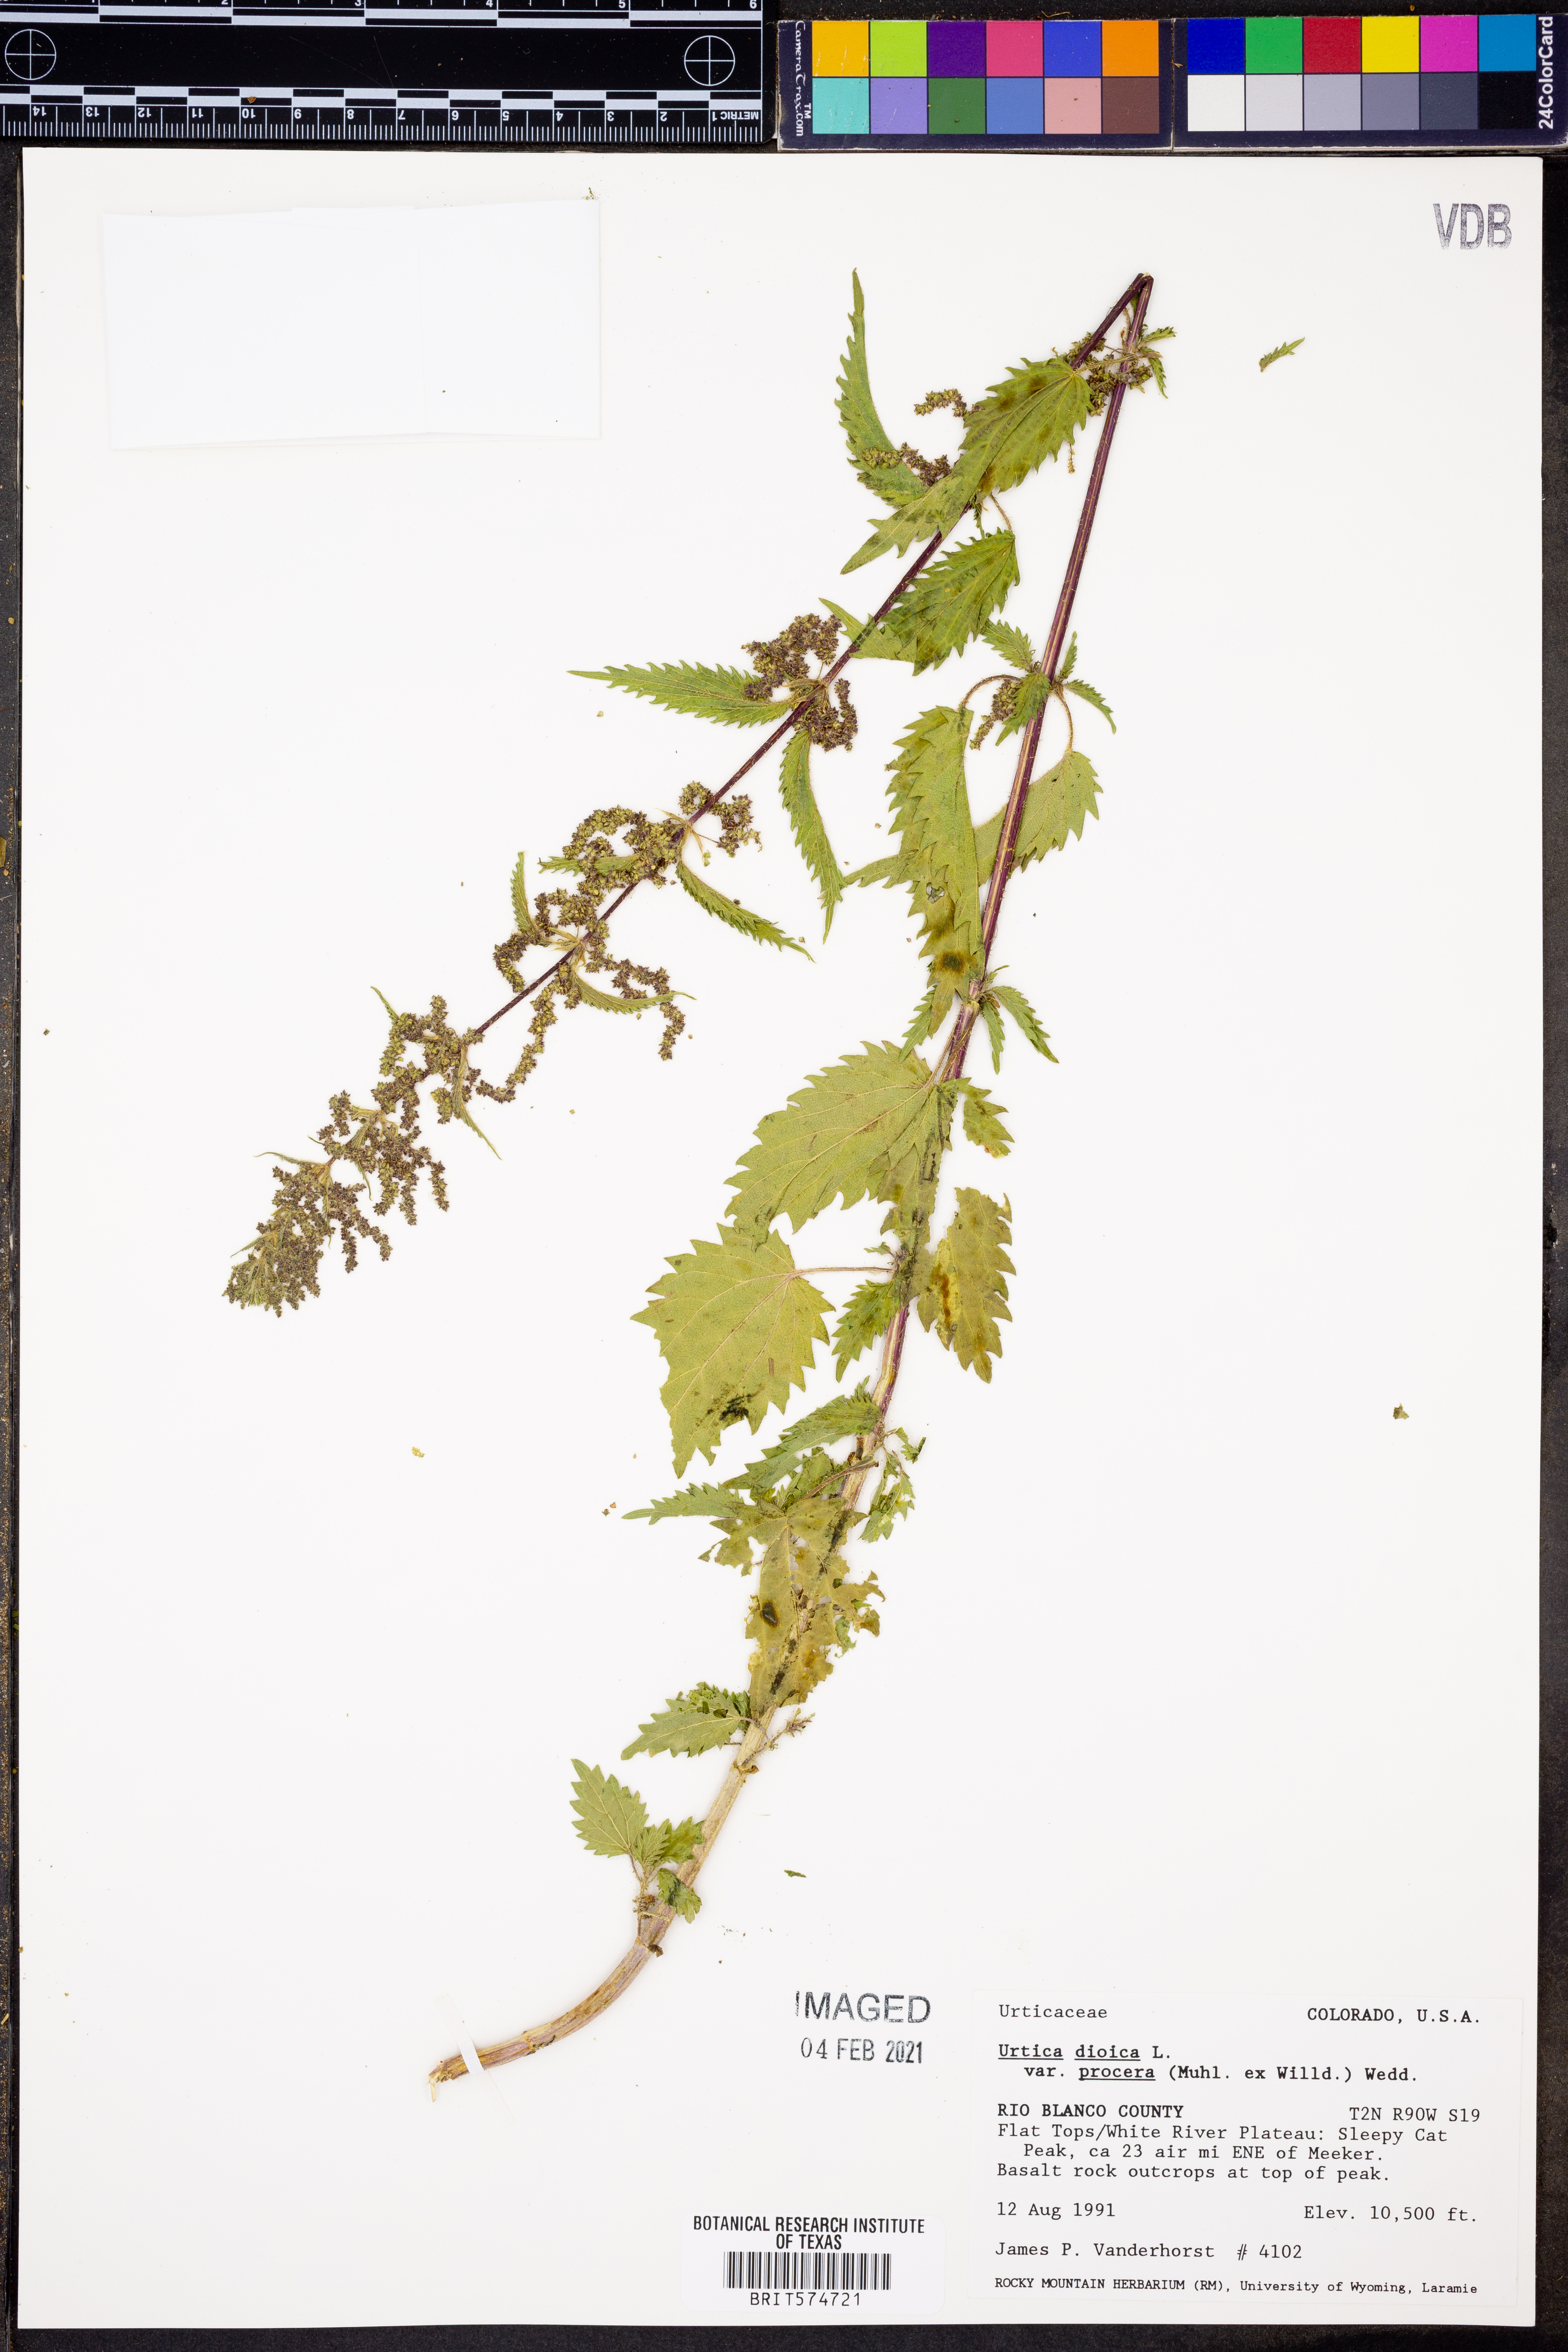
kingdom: Plantae
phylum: Tracheophyta
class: Magnoliopsida
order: Rosales
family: Urticaceae
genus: Urtica
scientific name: Urtica gracilis
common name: Slender stinging nettle
